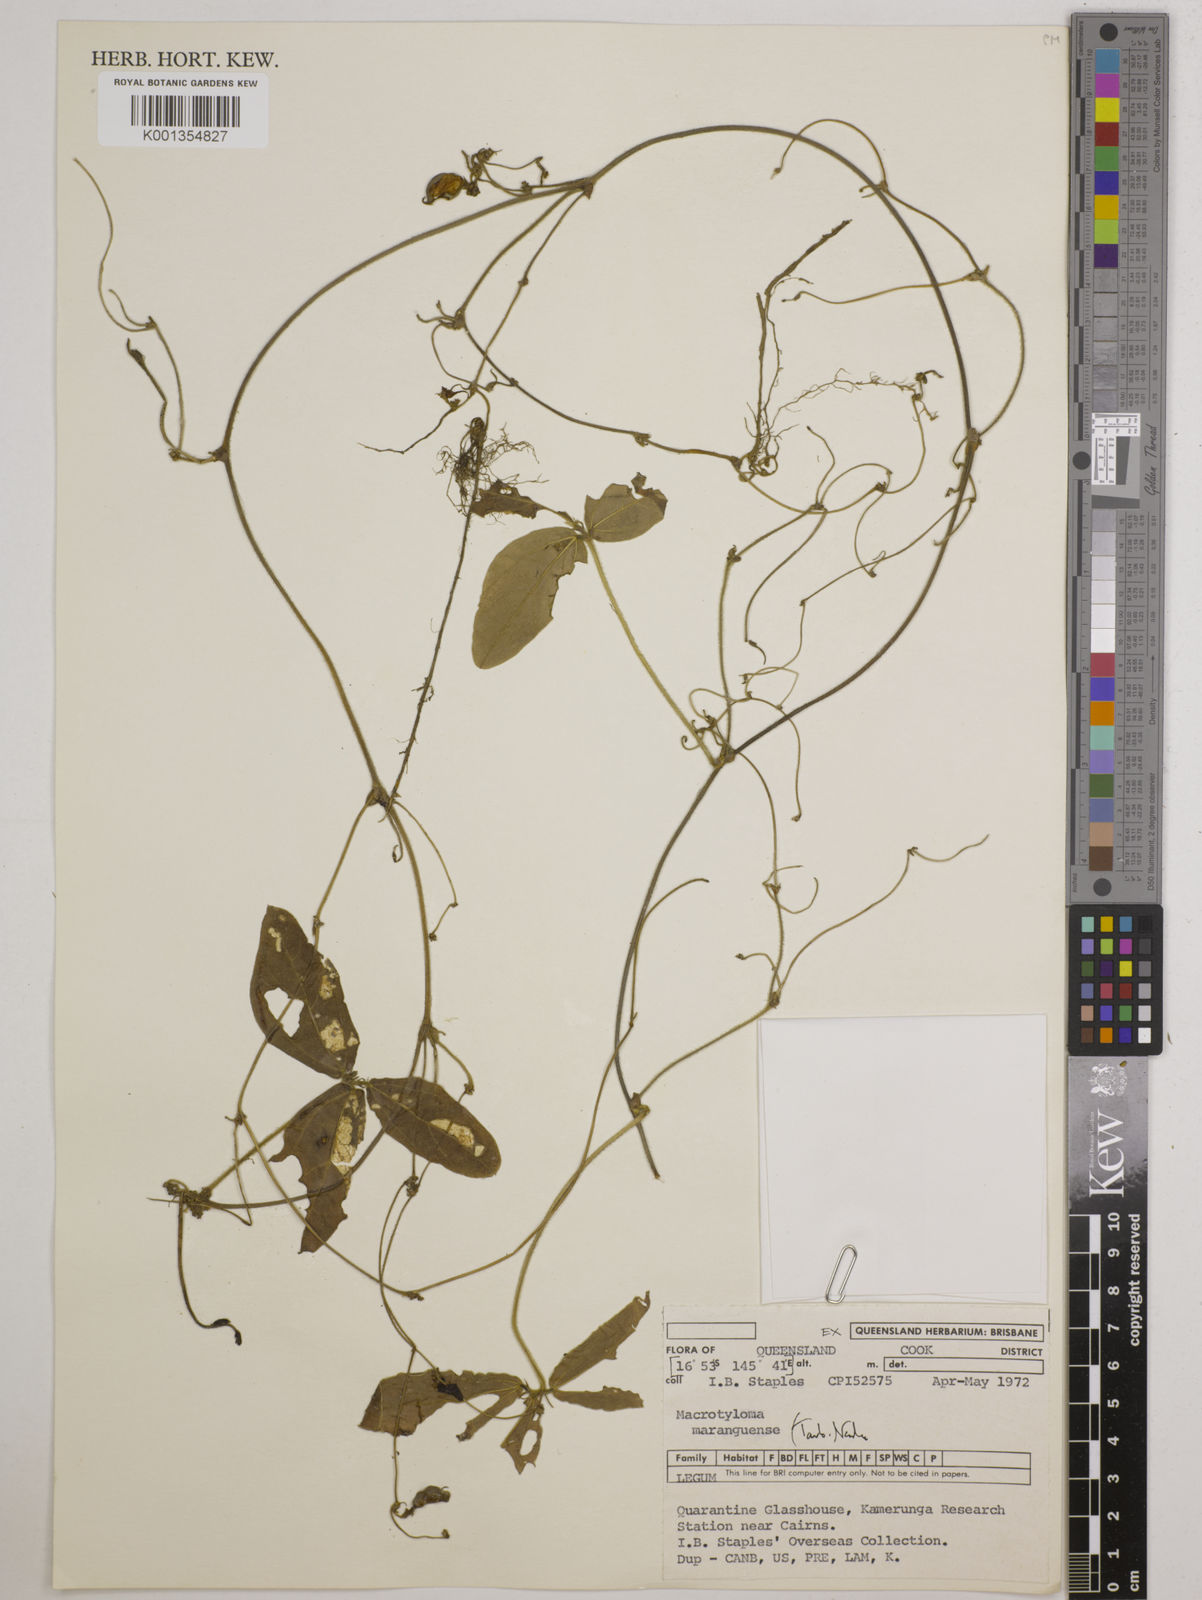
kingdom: Plantae
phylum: Tracheophyta
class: Magnoliopsida
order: Fabales
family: Fabaceae
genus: Macrotyloma
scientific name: Macrotyloma maranguense
